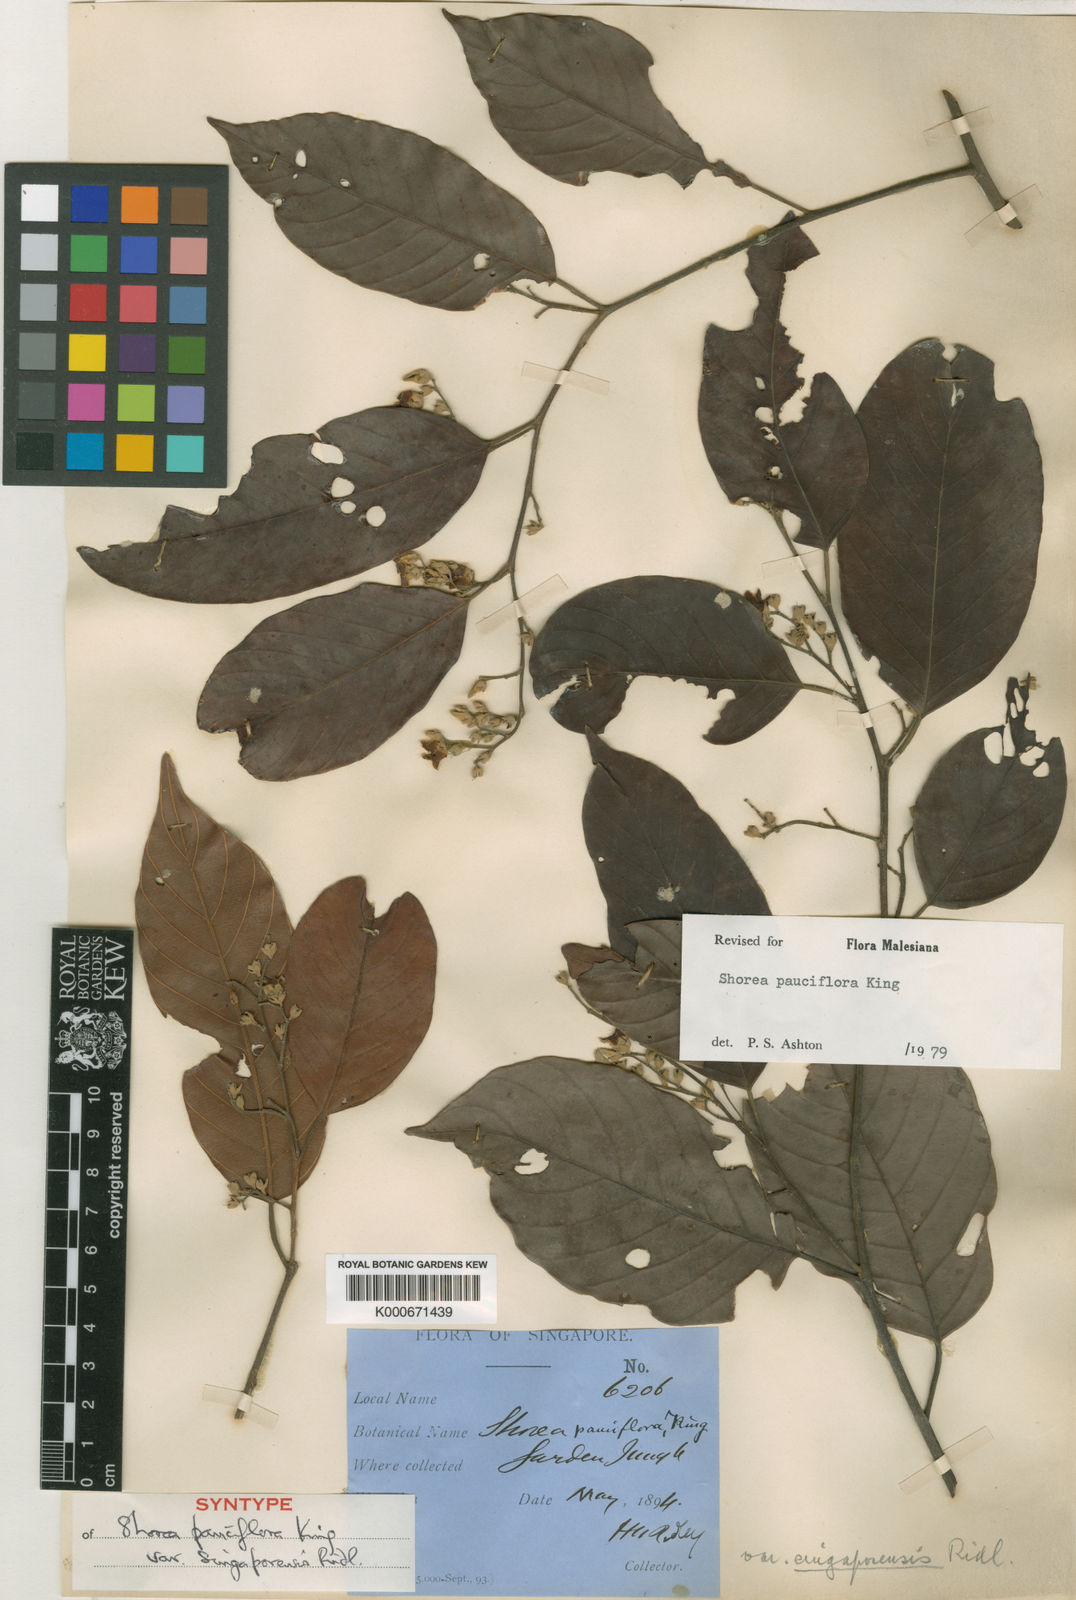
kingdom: Plantae
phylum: Tracheophyta
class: Magnoliopsida
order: Malvales
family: Dipterocarpaceae
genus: Shorea
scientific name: Shorea pauciflora
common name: Dark red meranti
